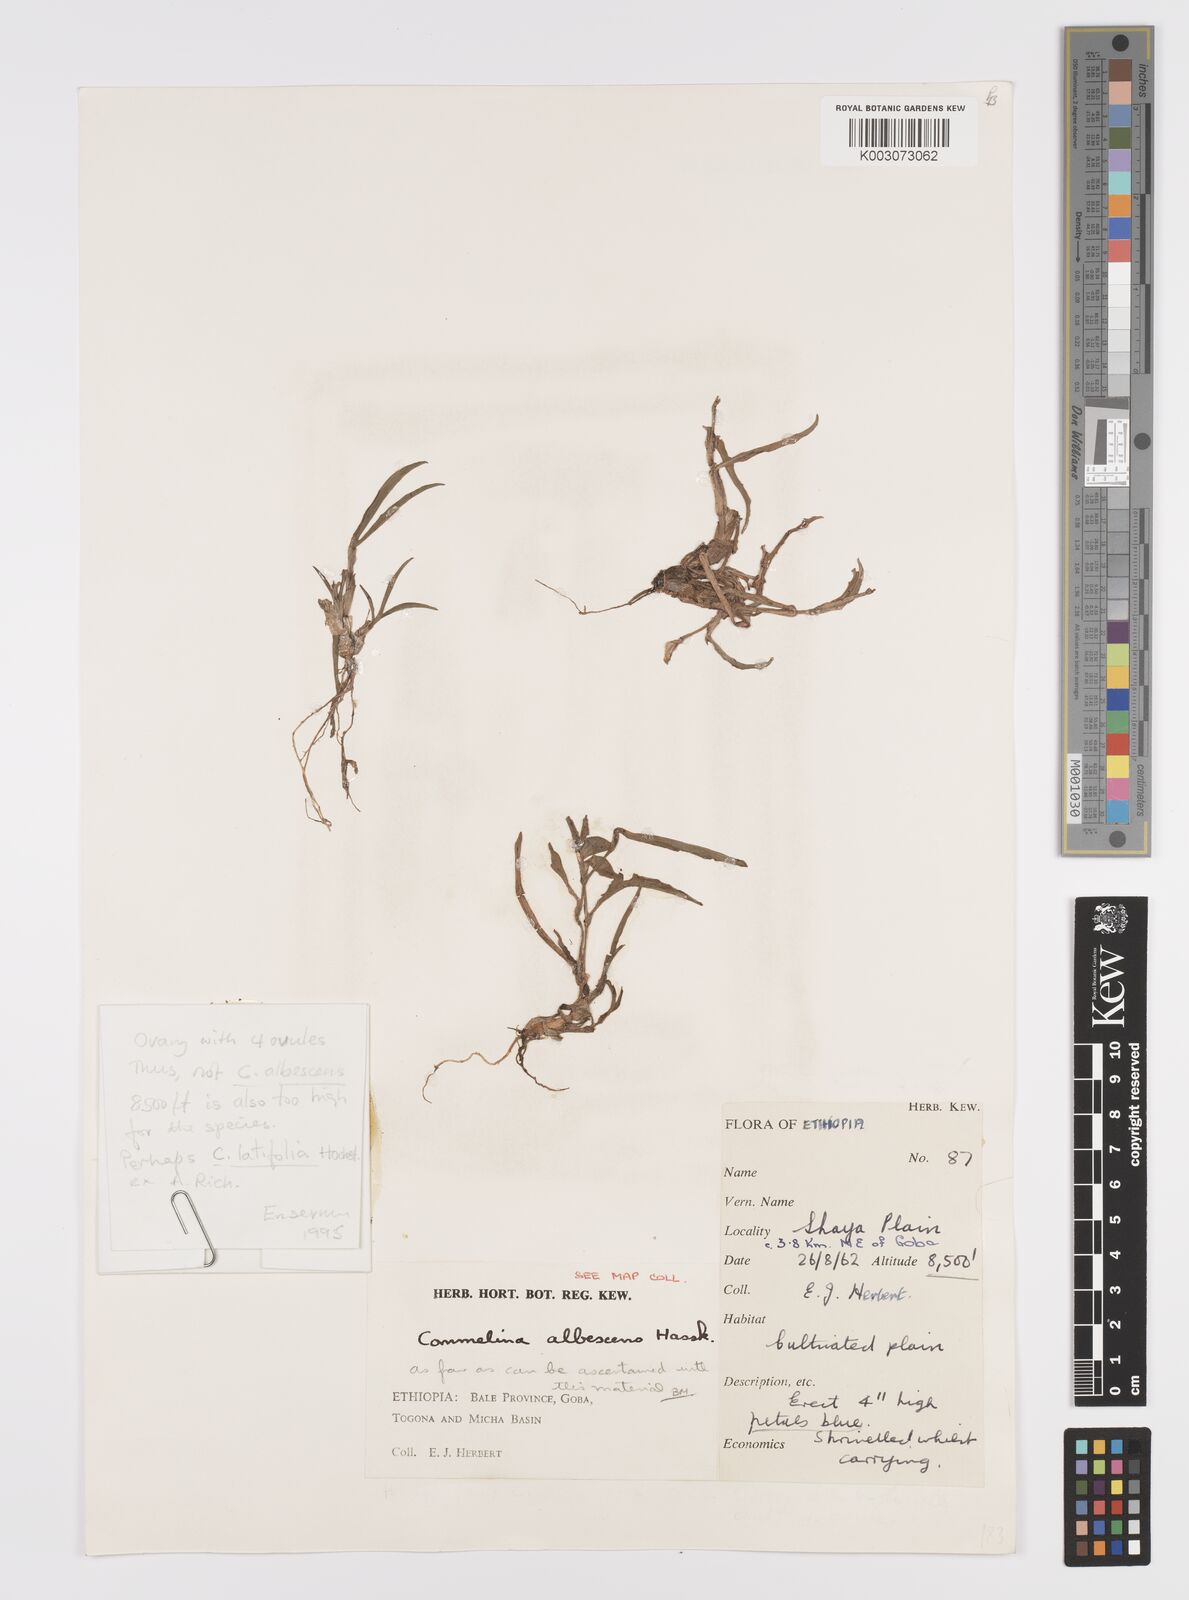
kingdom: Plantae
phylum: Tracheophyta
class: Liliopsida
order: Commelinales
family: Commelinaceae
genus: Commelina
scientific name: Commelina
